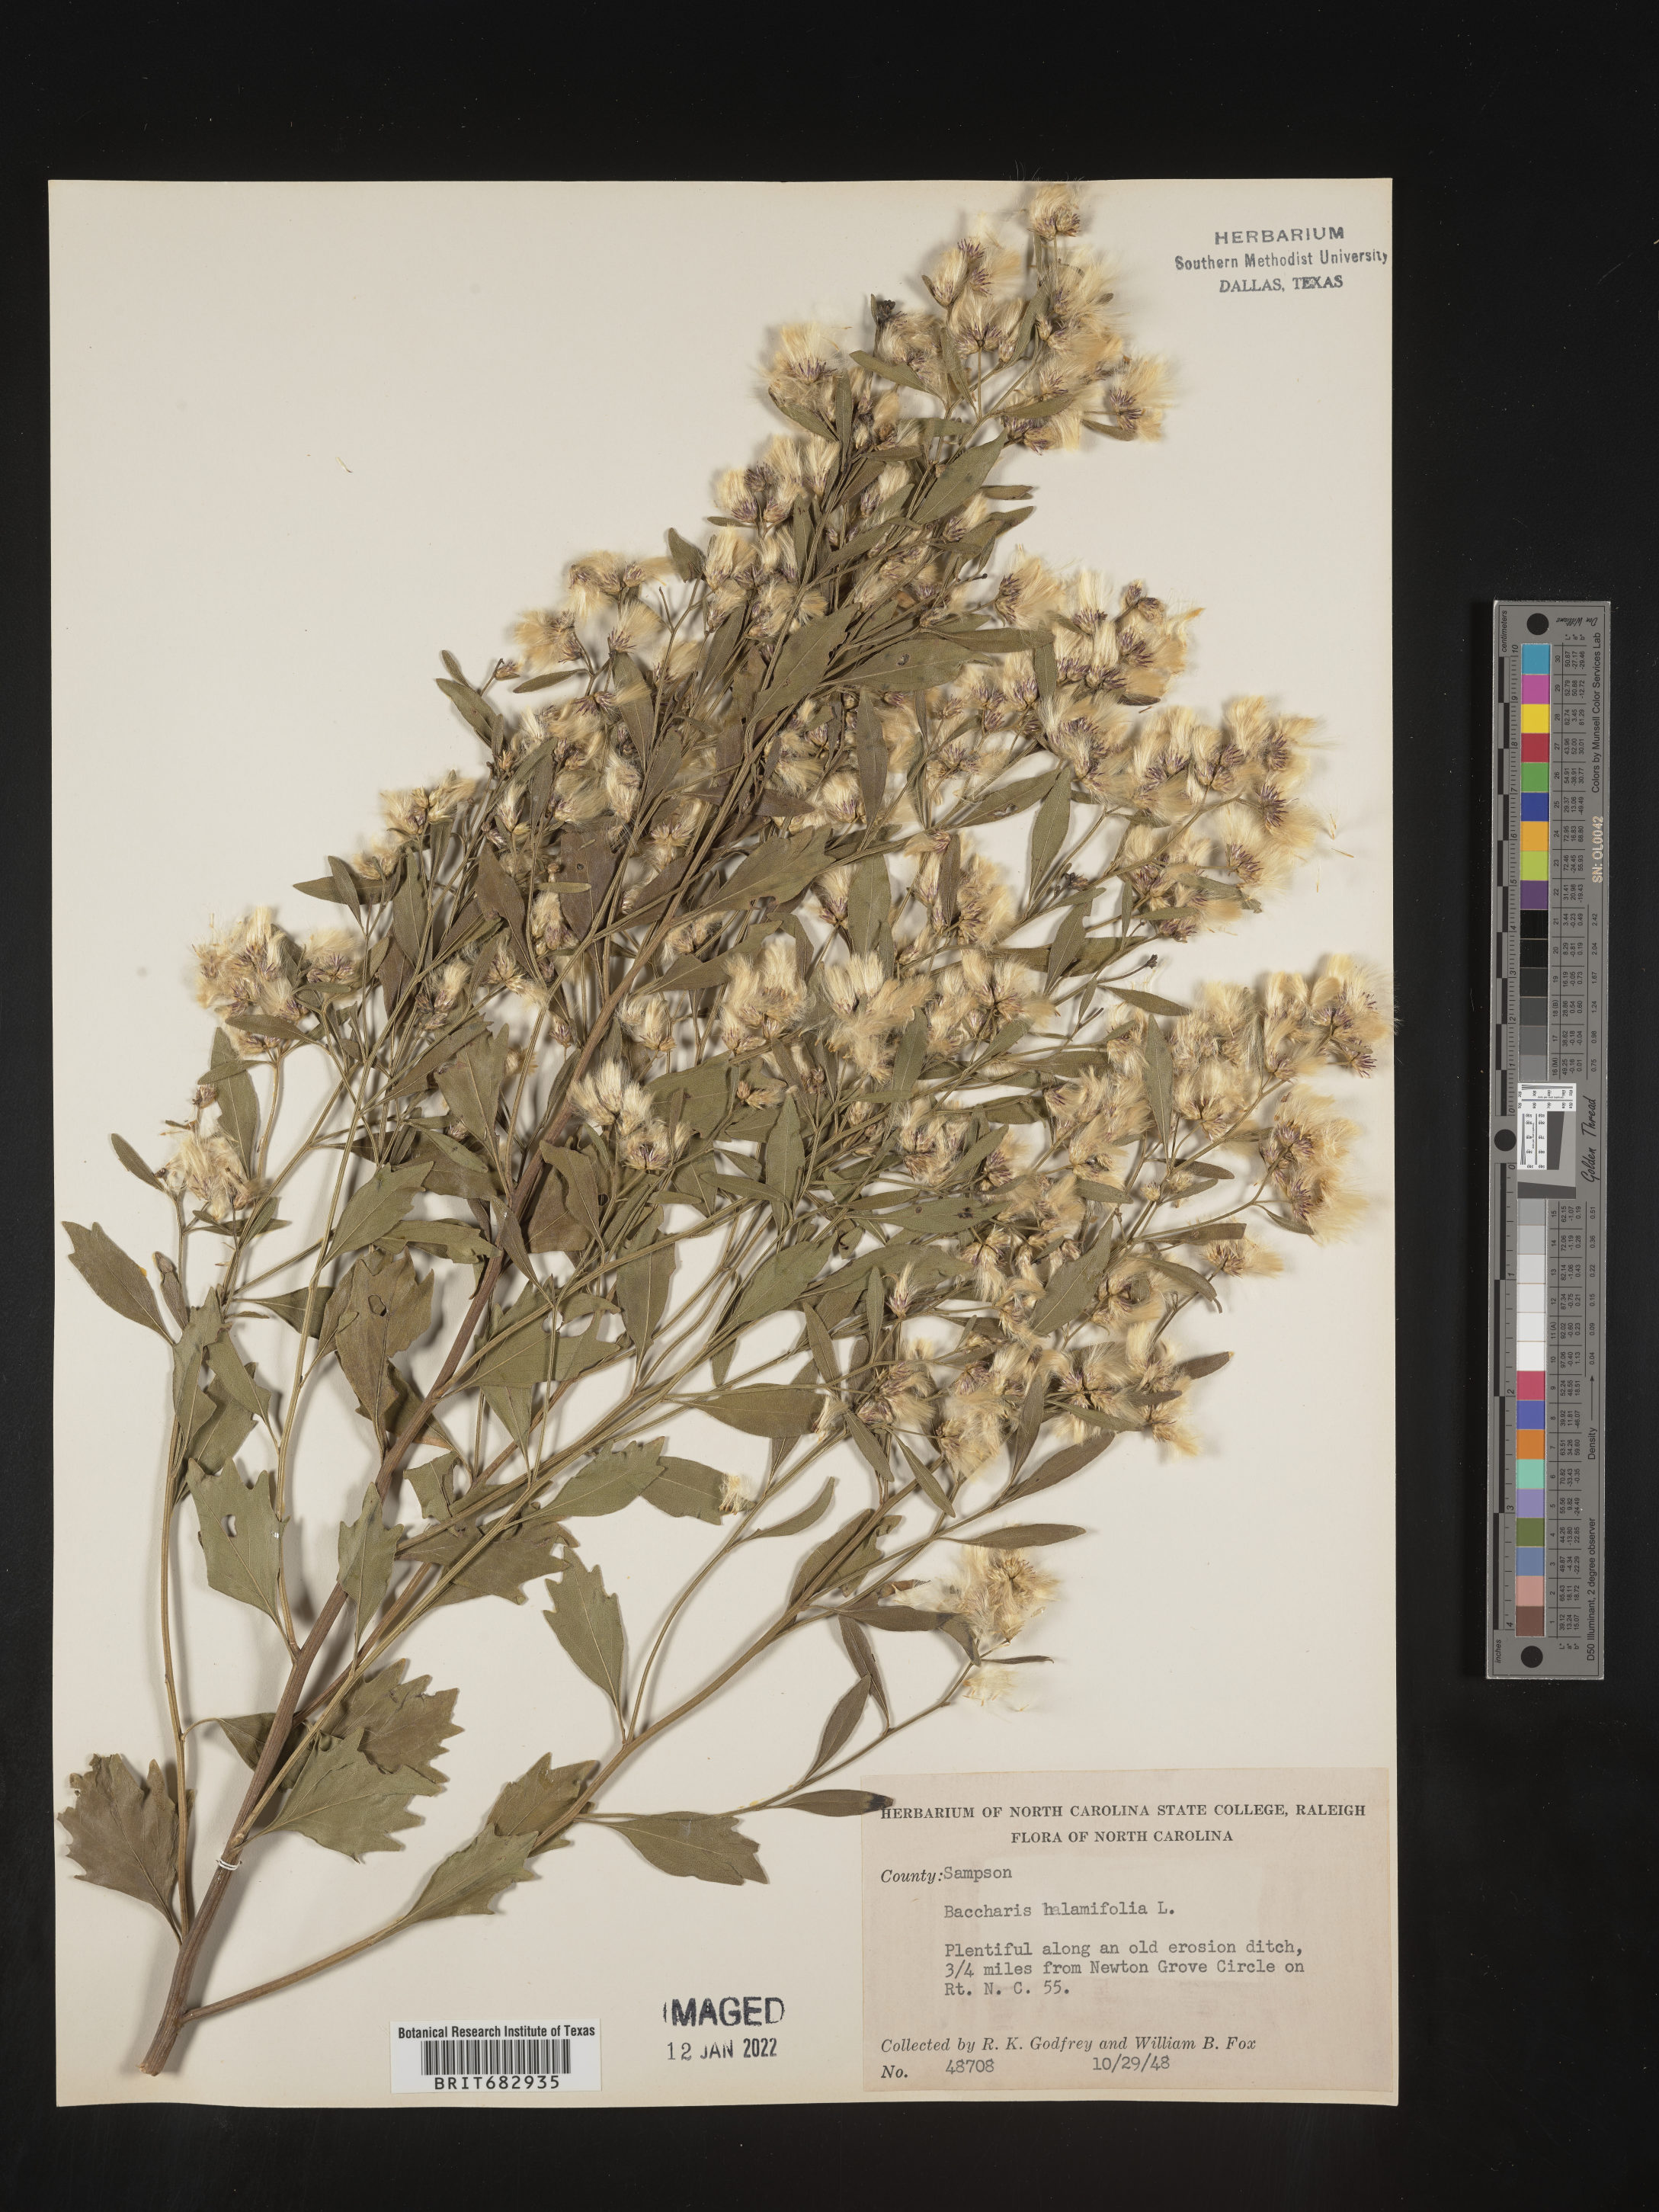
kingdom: Plantae
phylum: Tracheophyta
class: Magnoliopsida
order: Asterales
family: Asteraceae
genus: Nidorella
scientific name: Nidorella ivifolia
